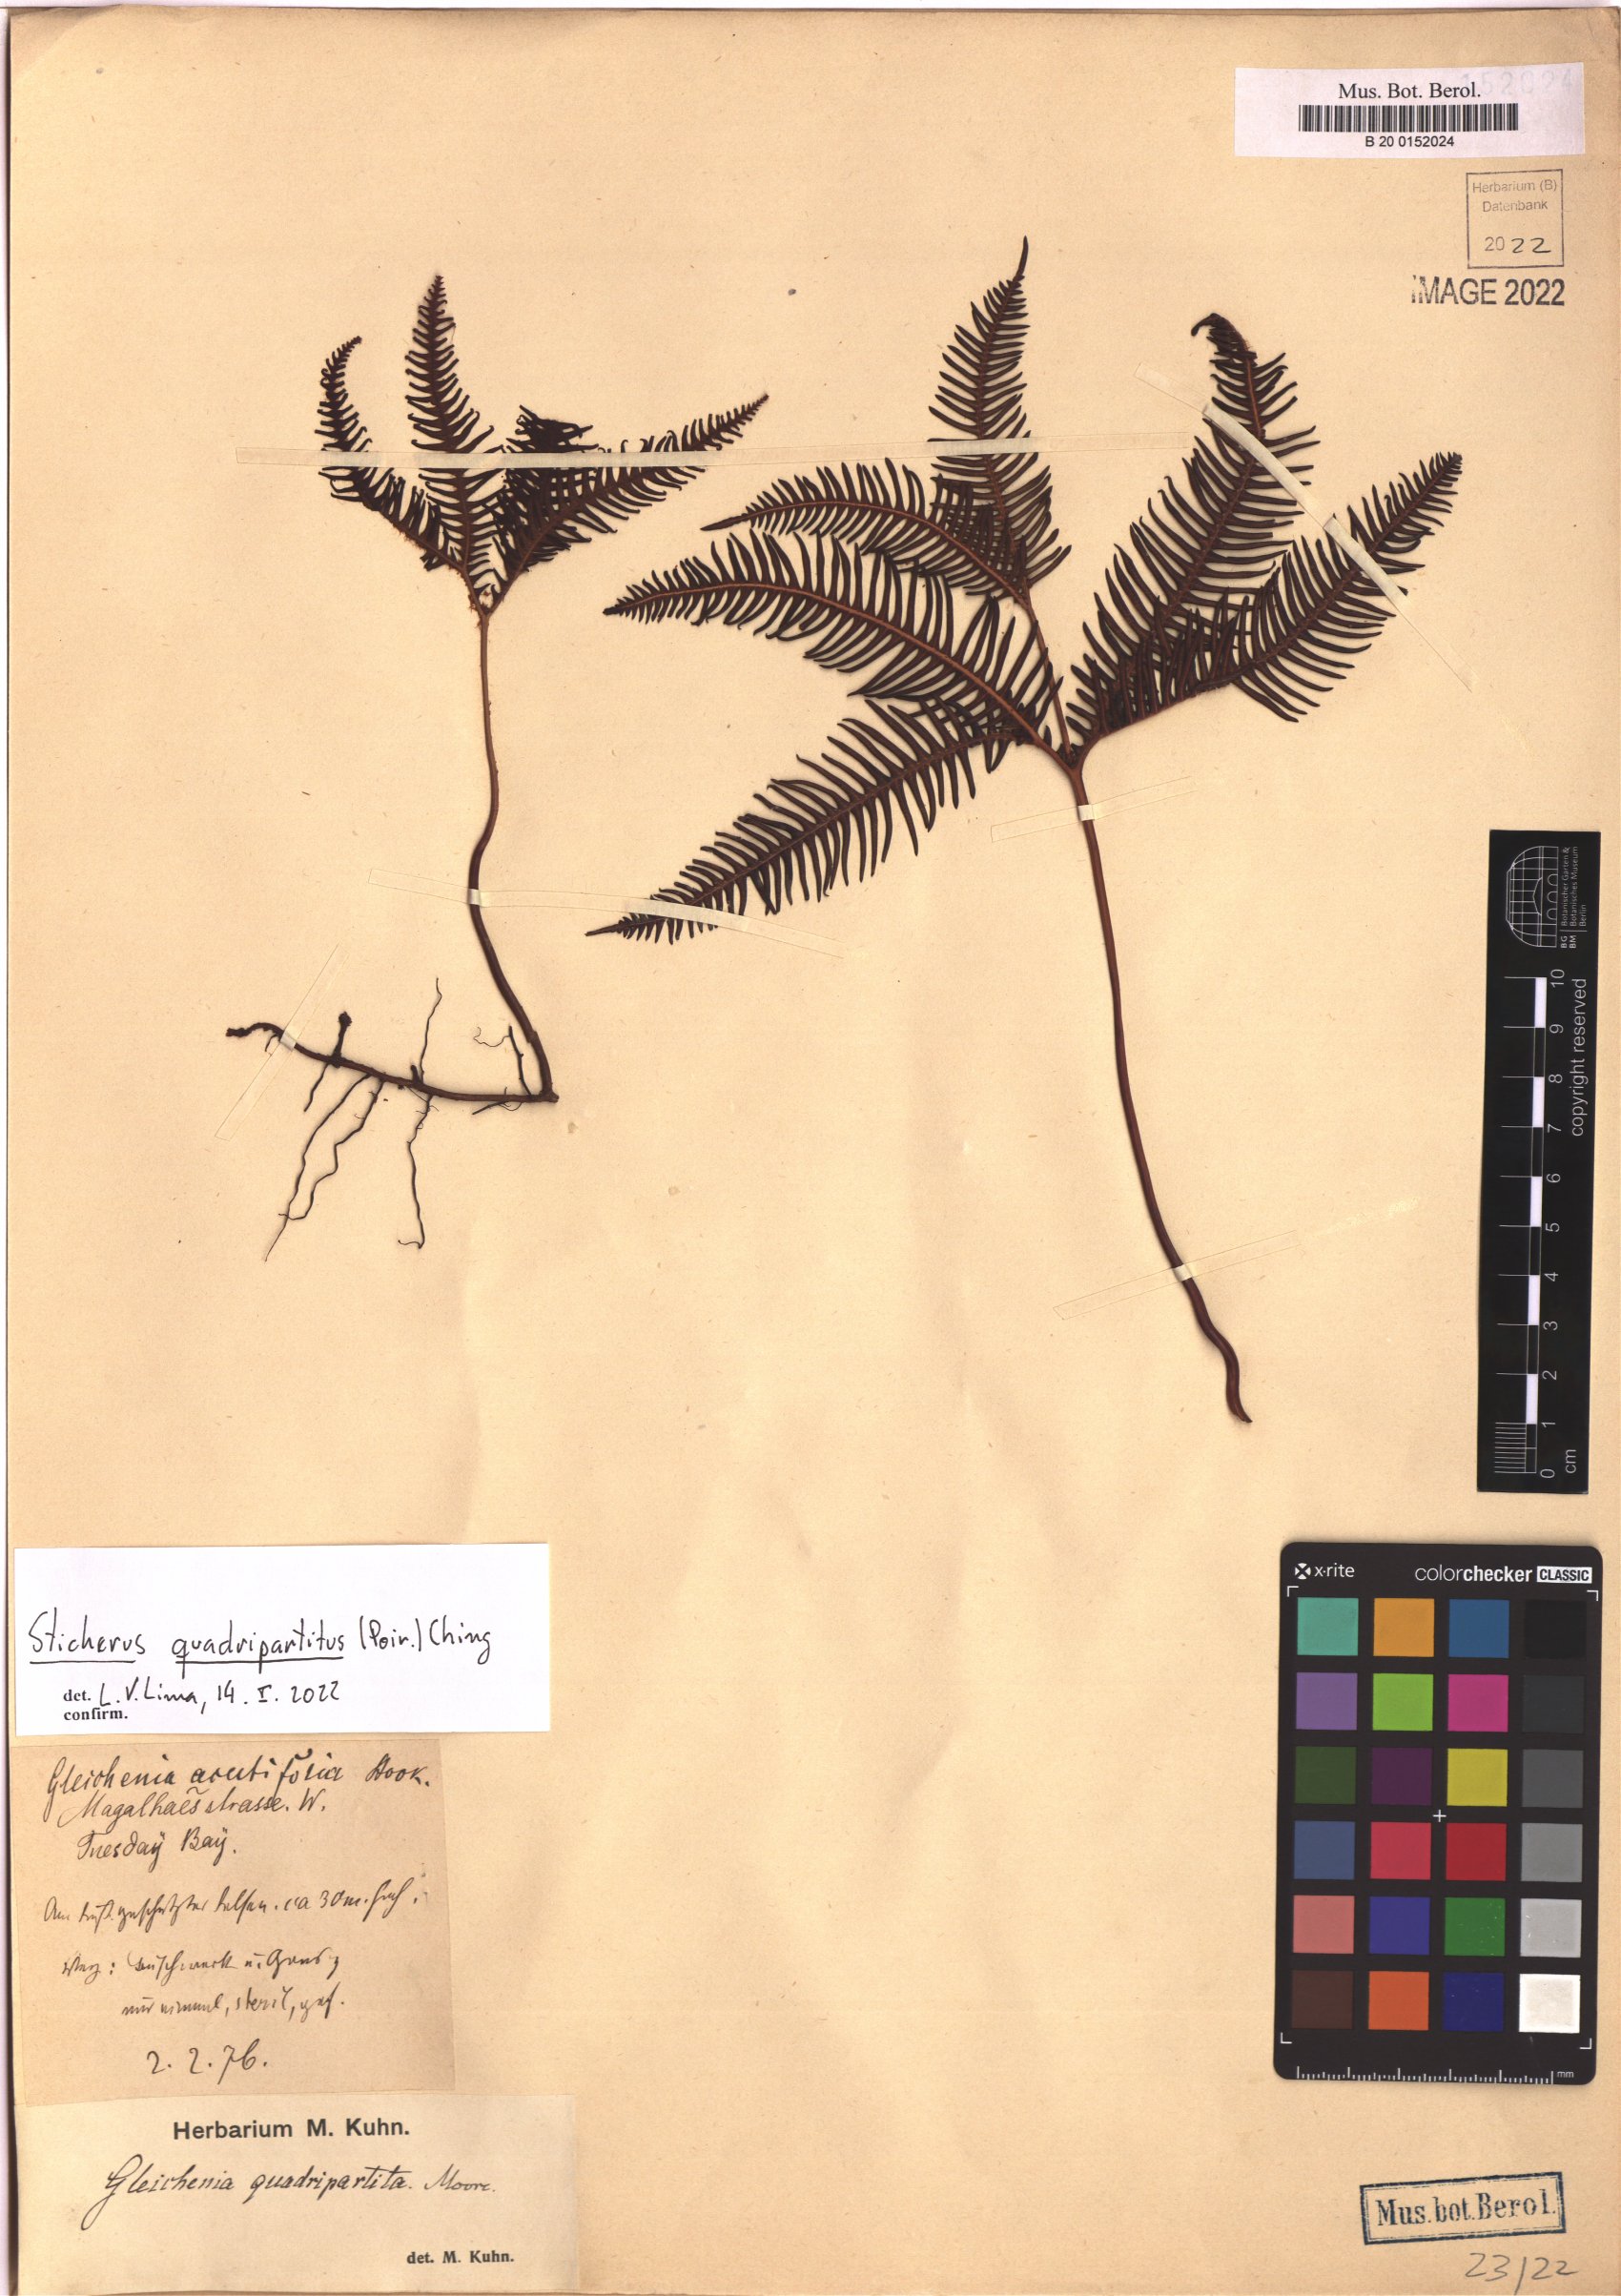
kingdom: Plantae
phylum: Tracheophyta
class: Polypodiopsida
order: Gleicheniales
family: Gleicheniaceae
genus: Sticherus
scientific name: Sticherus quadripartitus
